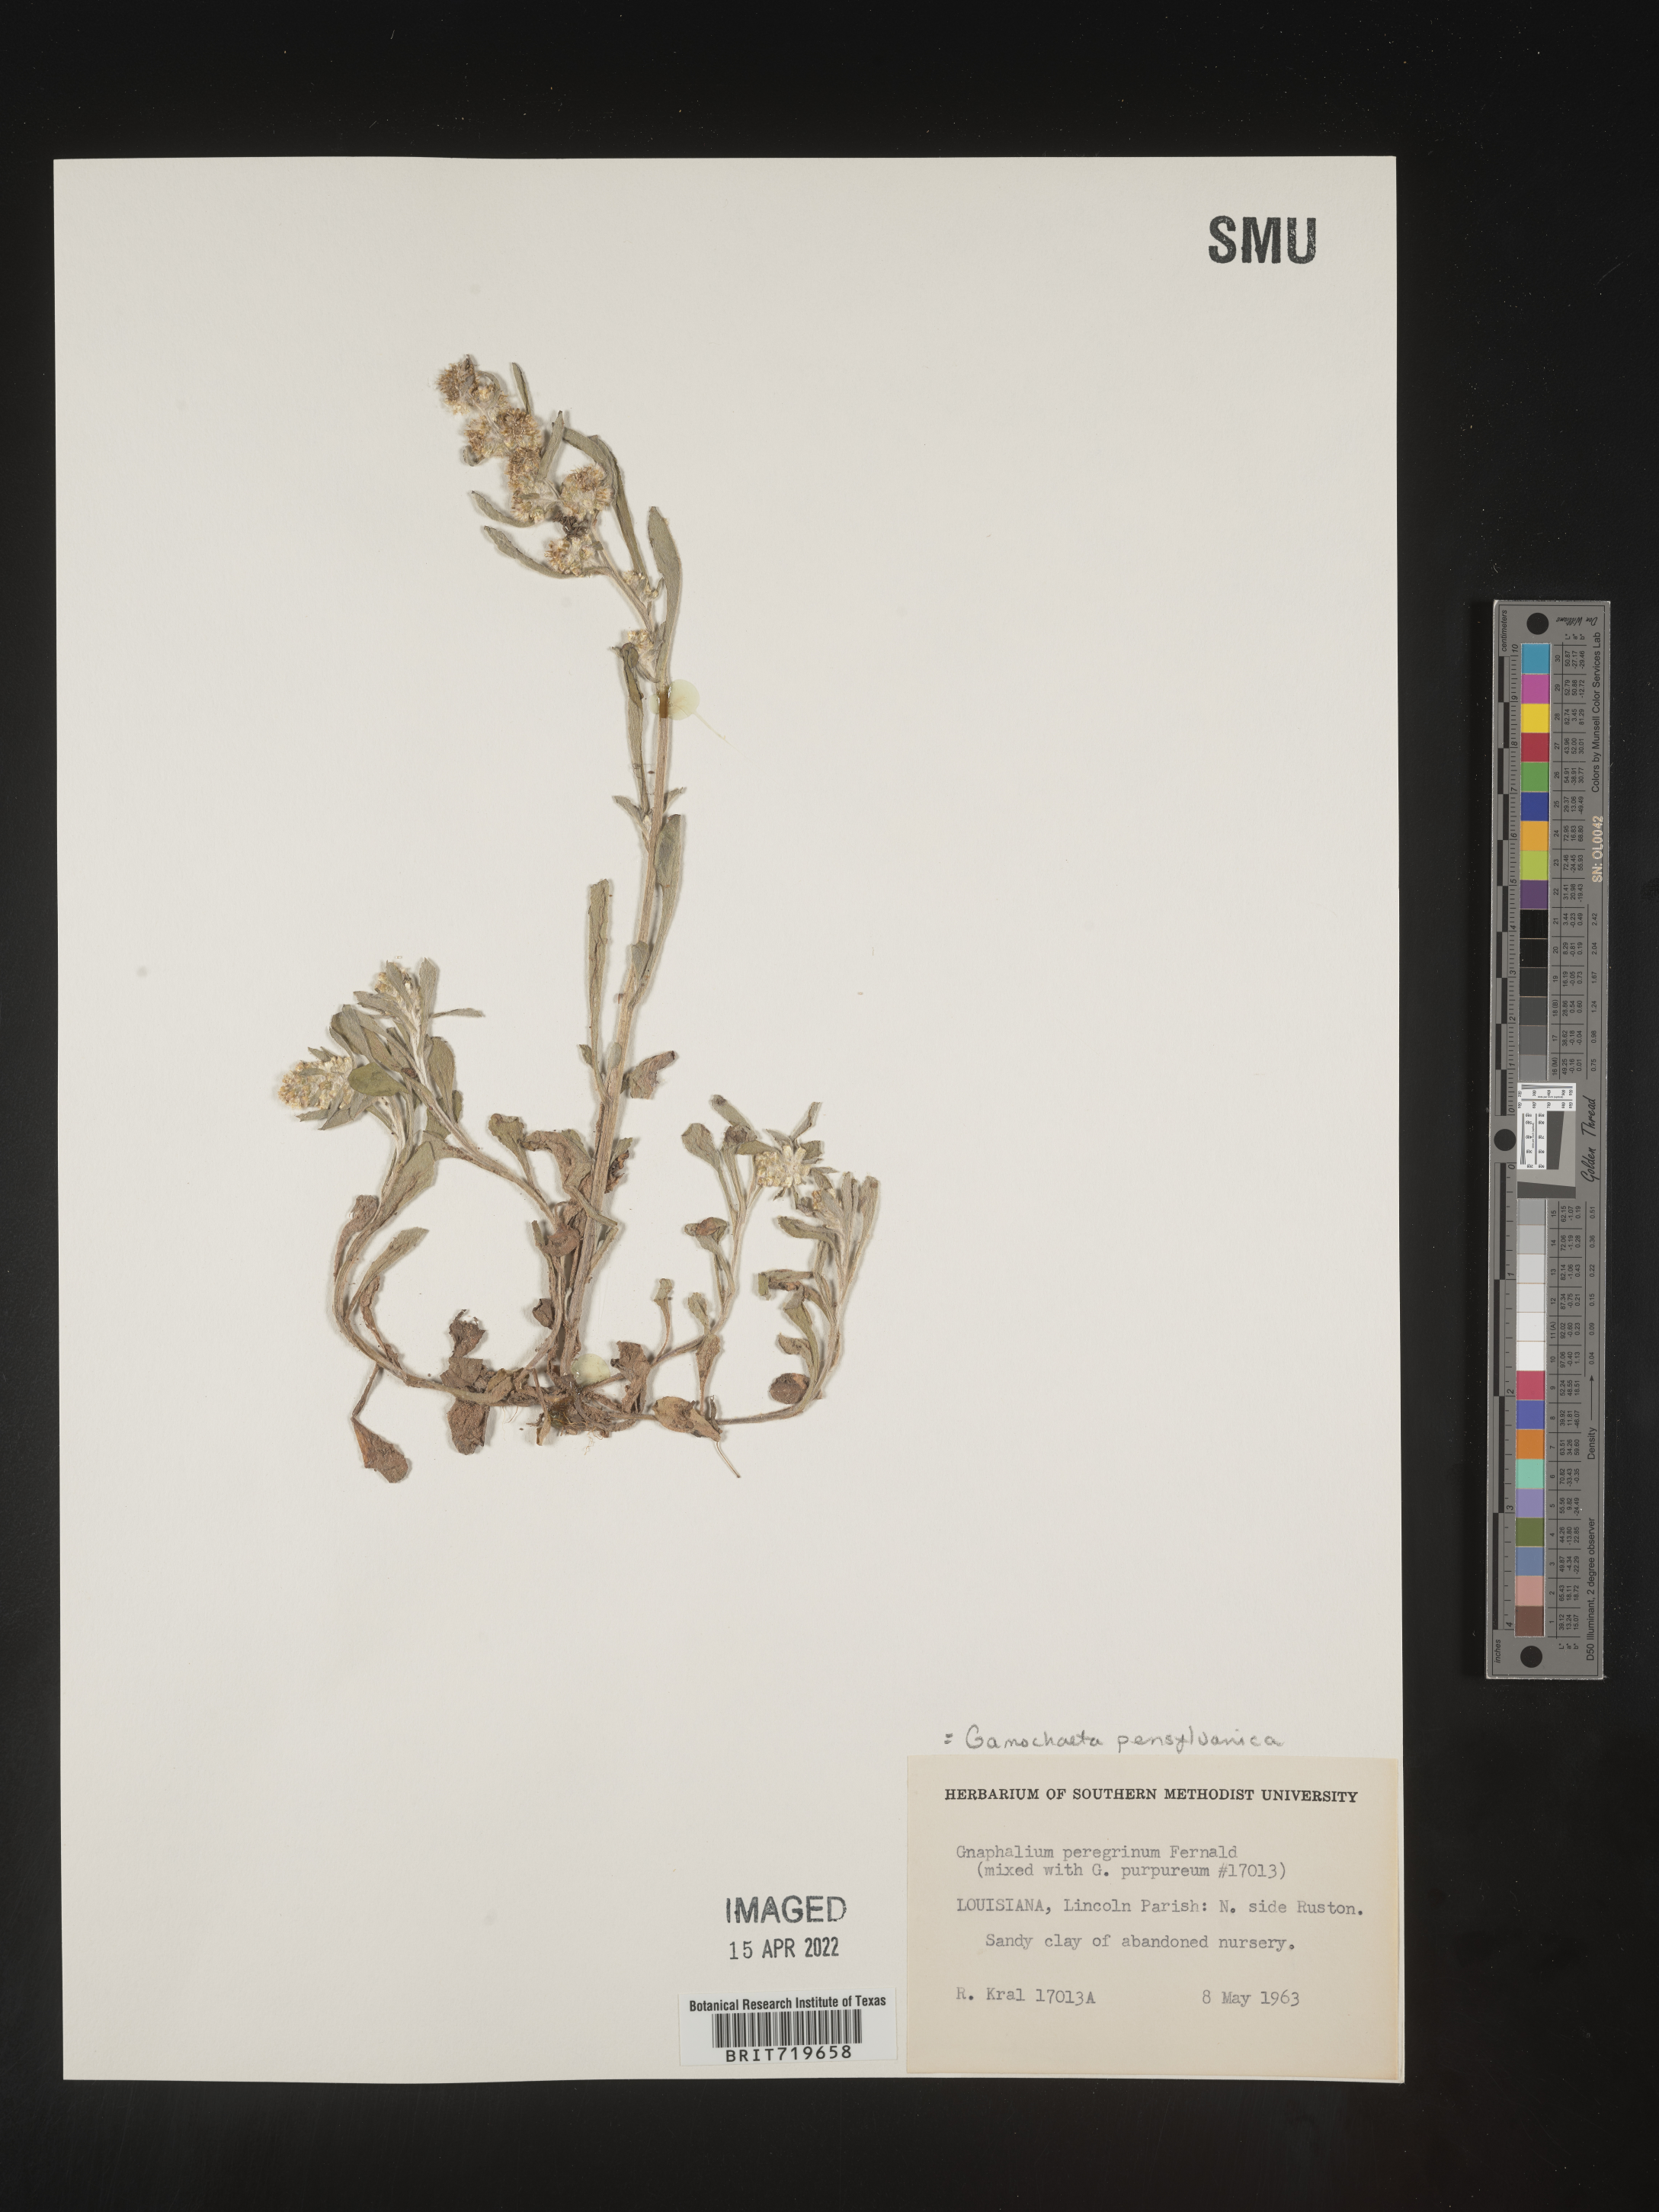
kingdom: Plantae
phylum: Tracheophyta
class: Magnoliopsida
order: Asterales
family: Asteraceae
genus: Gamochaeta
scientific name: Gamochaeta pensylvanica
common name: Pennsylvania everlasting
